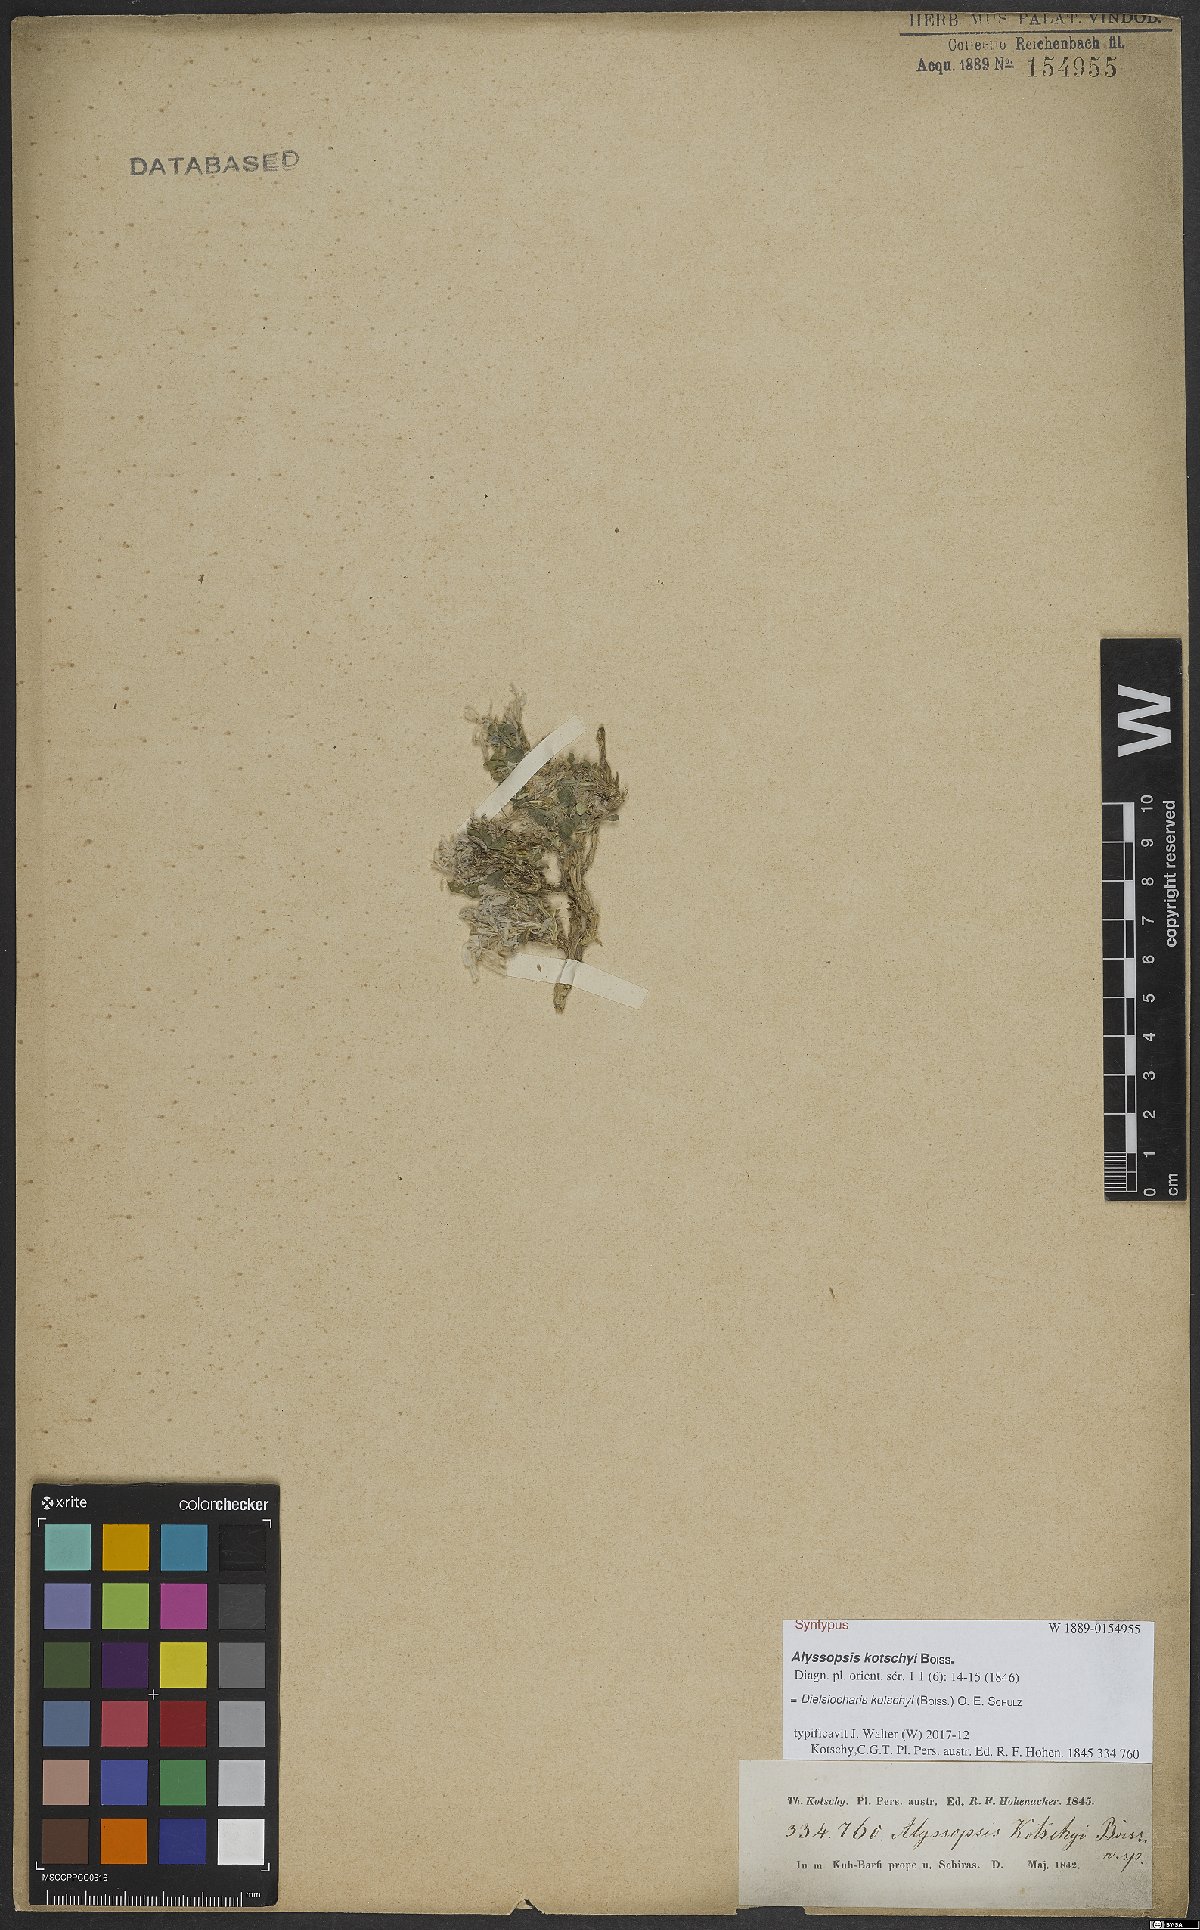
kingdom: Plantae
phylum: Tracheophyta
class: Magnoliopsida
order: Brassicales
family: Brassicaceae
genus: Dielsiocharis
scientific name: Dielsiocharis kotschyi
